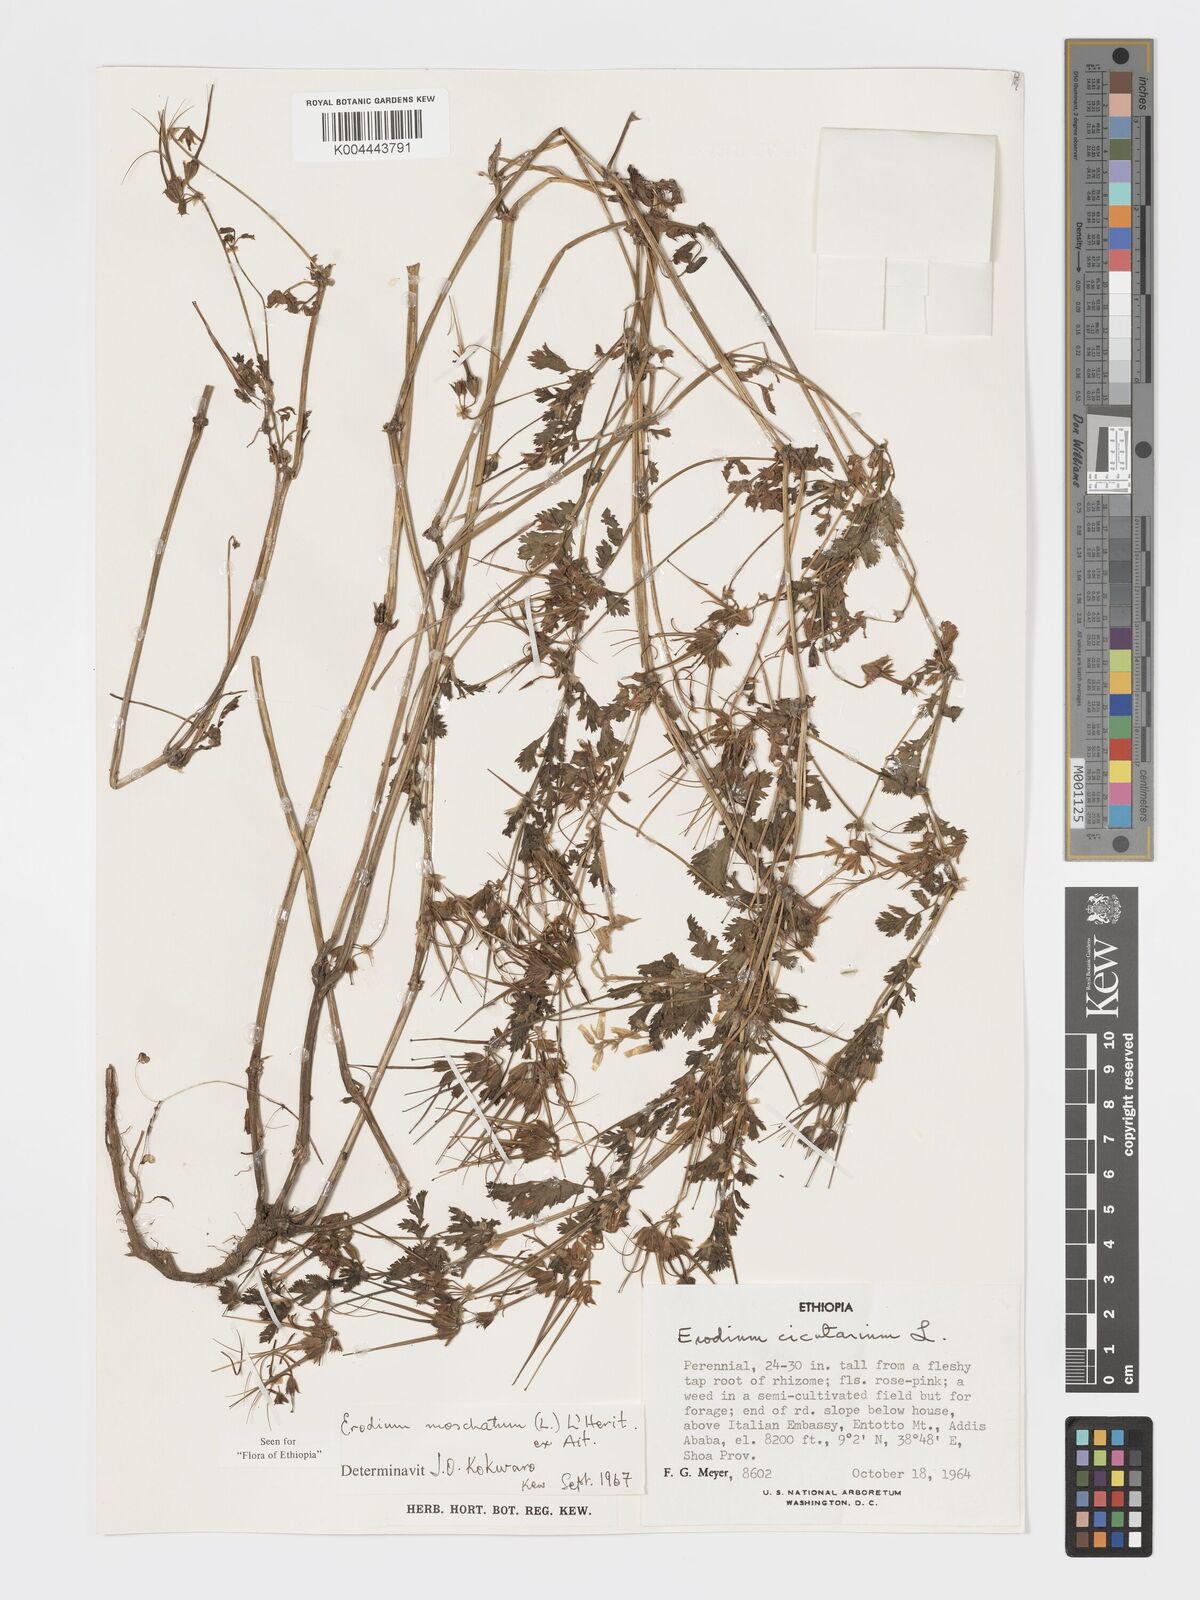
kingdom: Plantae
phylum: Tracheophyta
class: Magnoliopsida
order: Geraniales
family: Geraniaceae
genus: Erodium
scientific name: Erodium moschatum
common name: Musk stork's-bill
